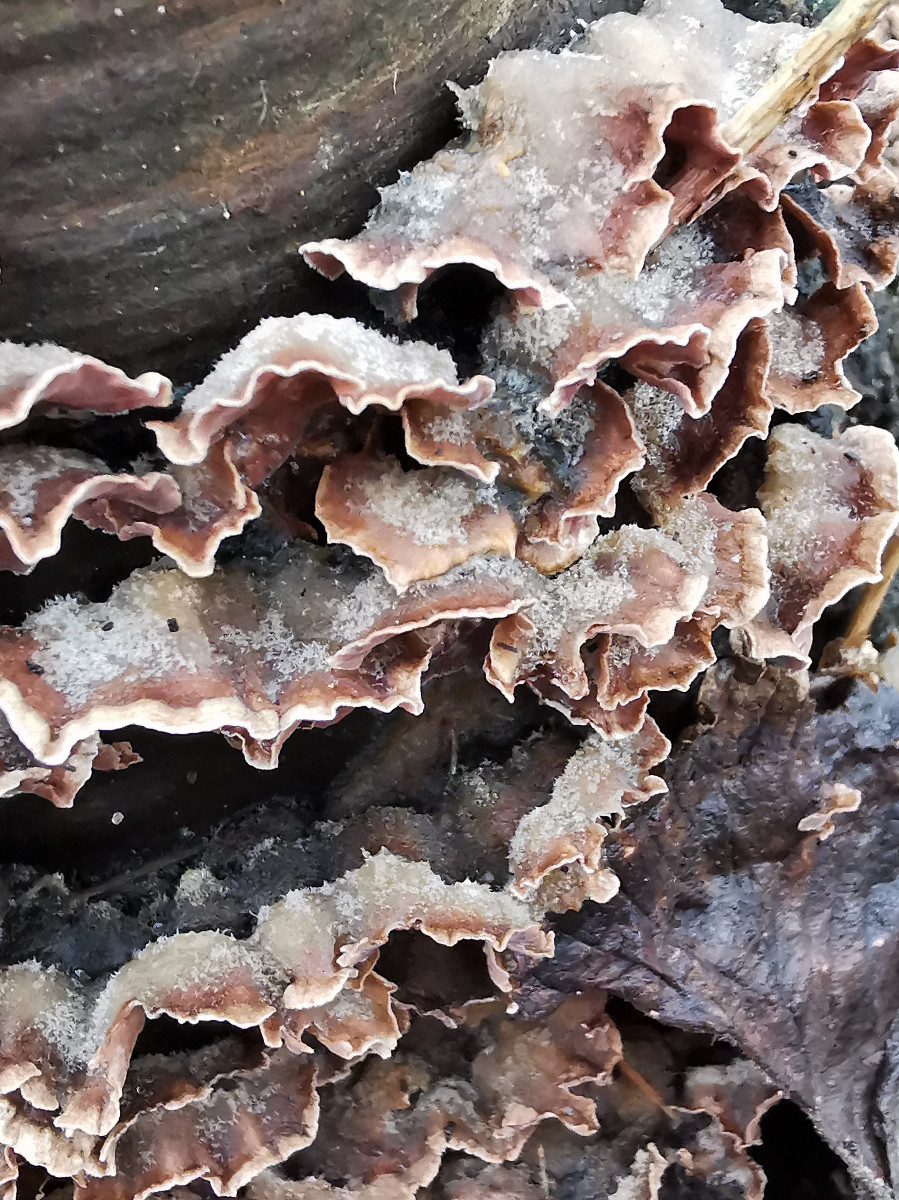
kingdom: Fungi
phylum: Basidiomycota
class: Agaricomycetes
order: Agaricales
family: Cyphellaceae
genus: Chondrostereum
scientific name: Chondrostereum purpureum
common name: purpurlædersvamp
